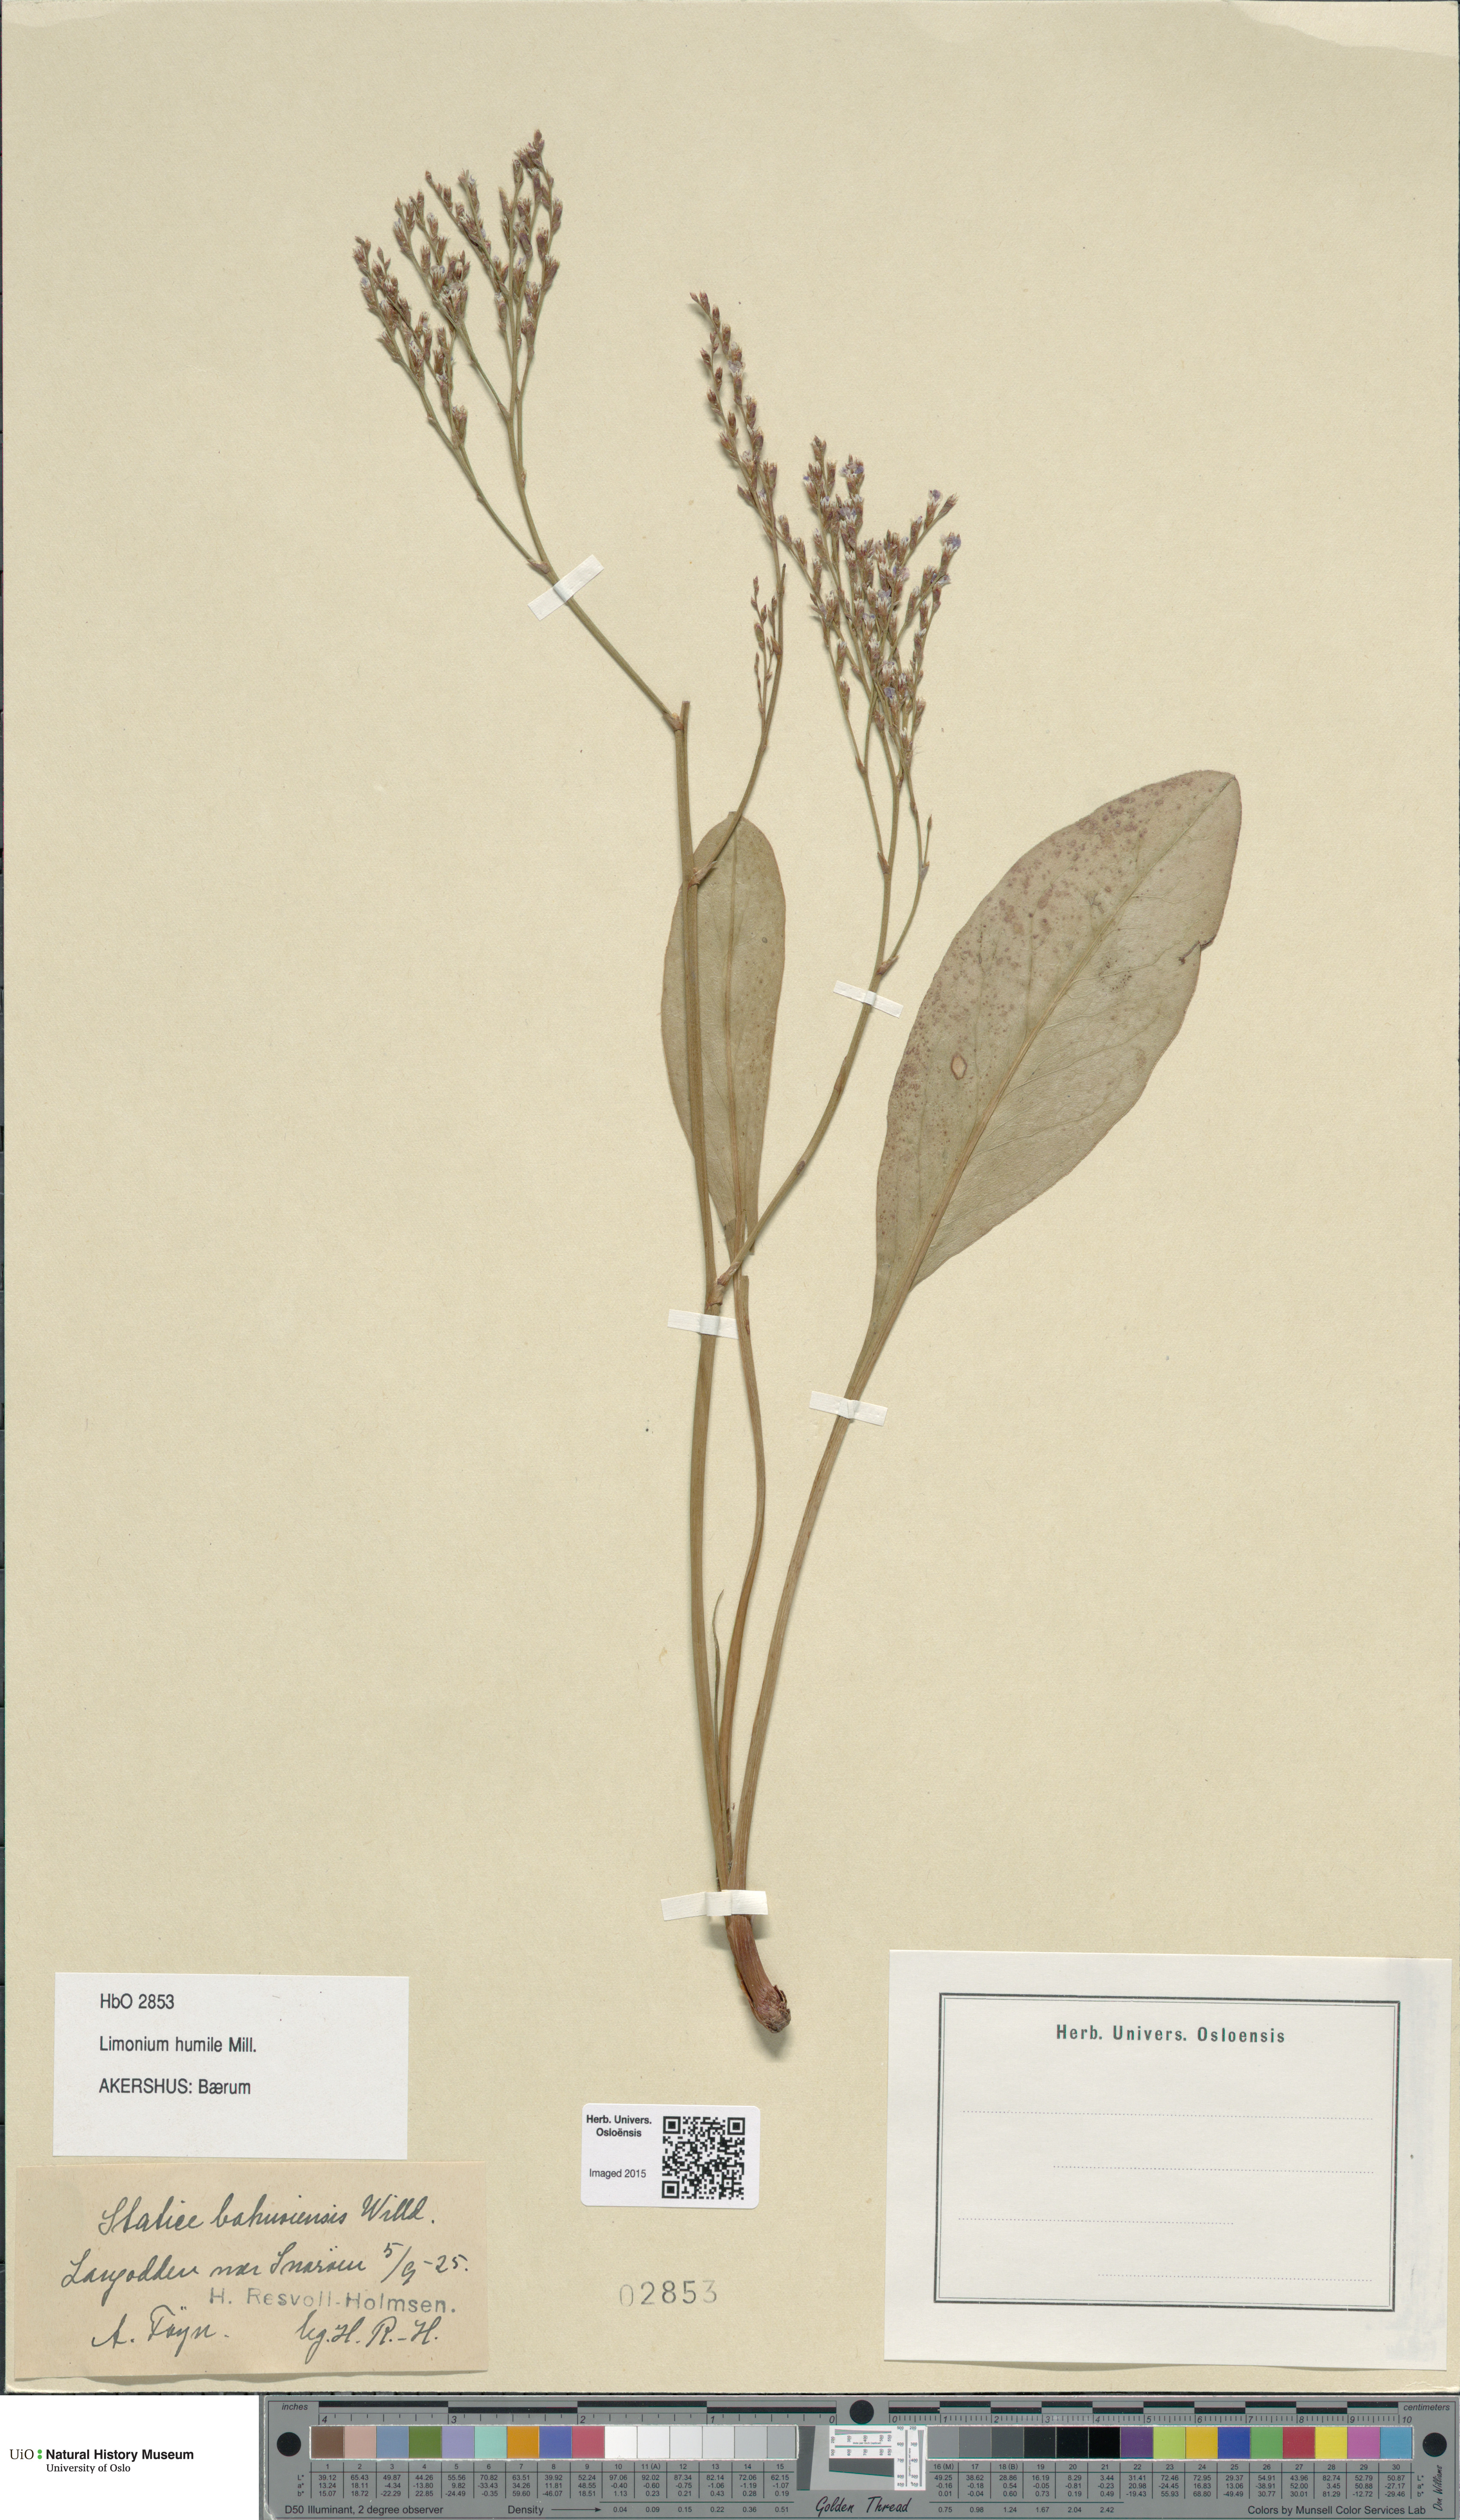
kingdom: Plantae
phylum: Tracheophyta
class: Magnoliopsida
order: Caryophyllales
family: Plumbaginaceae
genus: Limonium
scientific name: Limonium humile
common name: Lax-flowered sea-lavender
